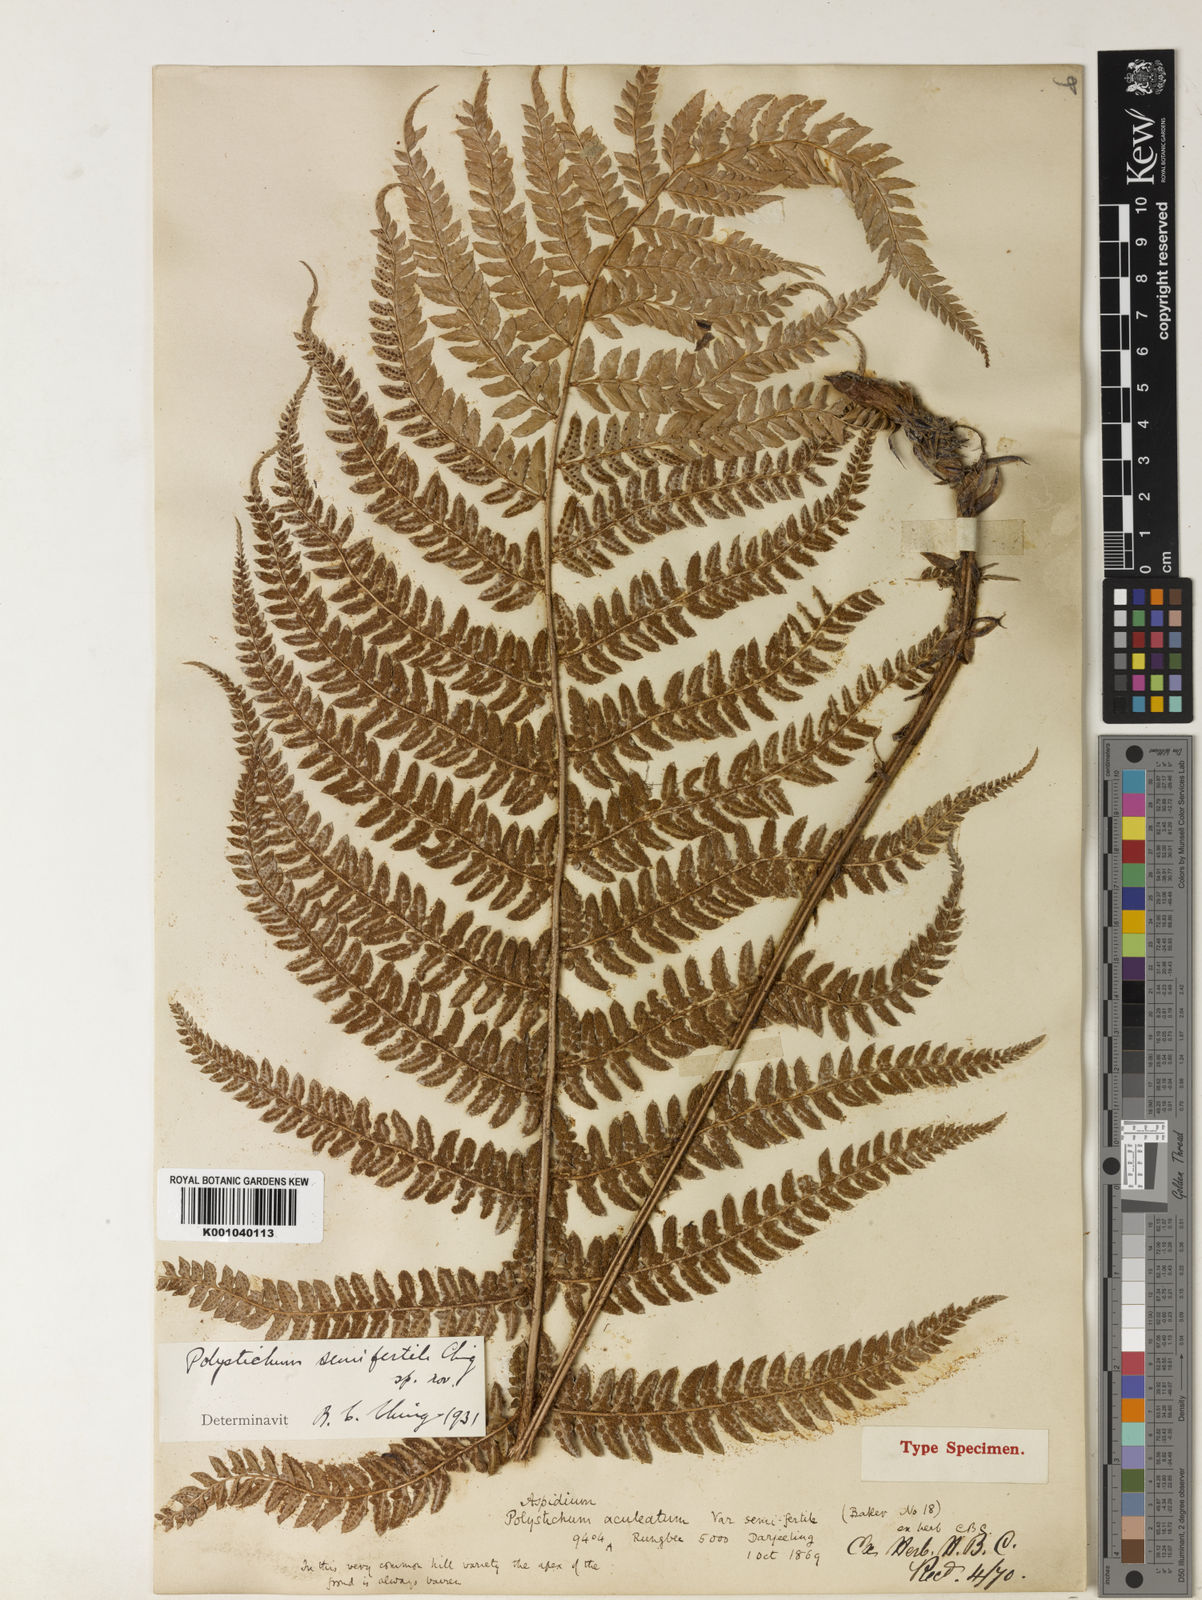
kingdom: Plantae
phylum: Tracheophyta
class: Polypodiopsida
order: Polypodiales
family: Dryopteridaceae
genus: Polystichum
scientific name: Polystichum semifertile
